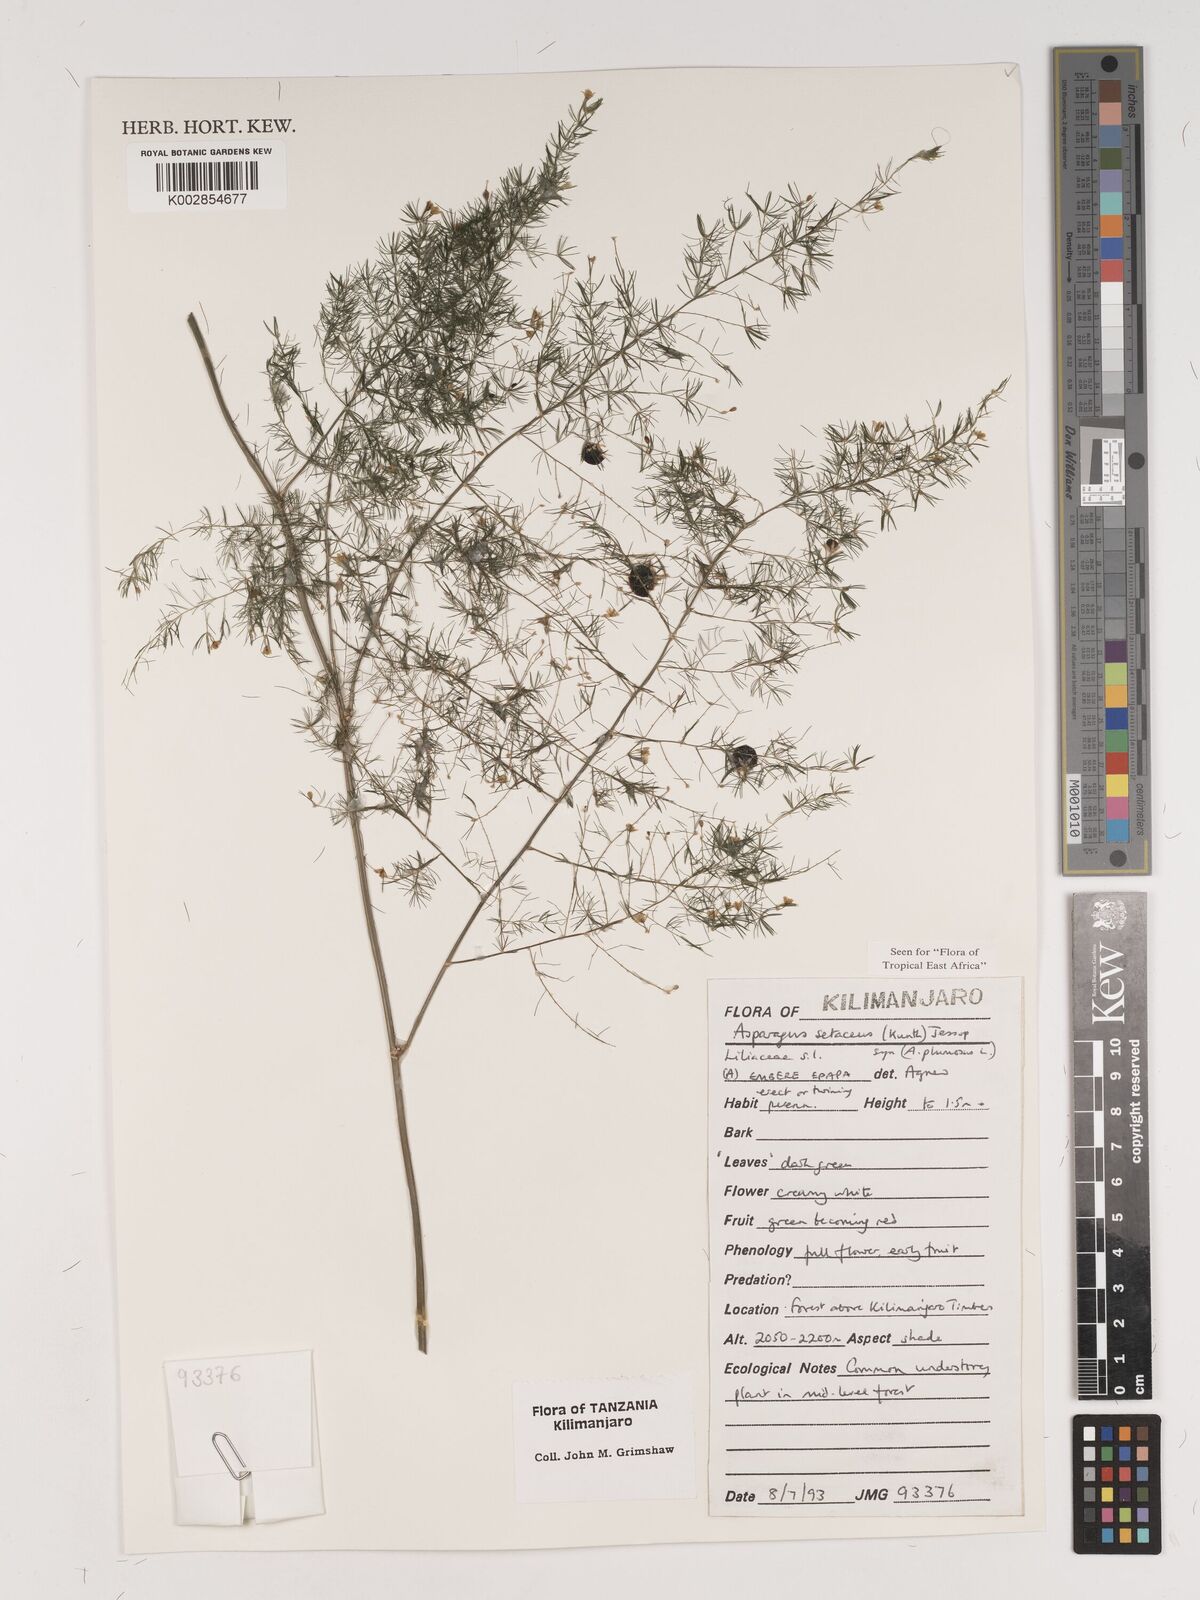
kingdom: Plantae
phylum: Tracheophyta
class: Liliopsida
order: Asparagales
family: Asparagaceae
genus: Asparagus
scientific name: Asparagus setaceus
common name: Common asparagus fern
